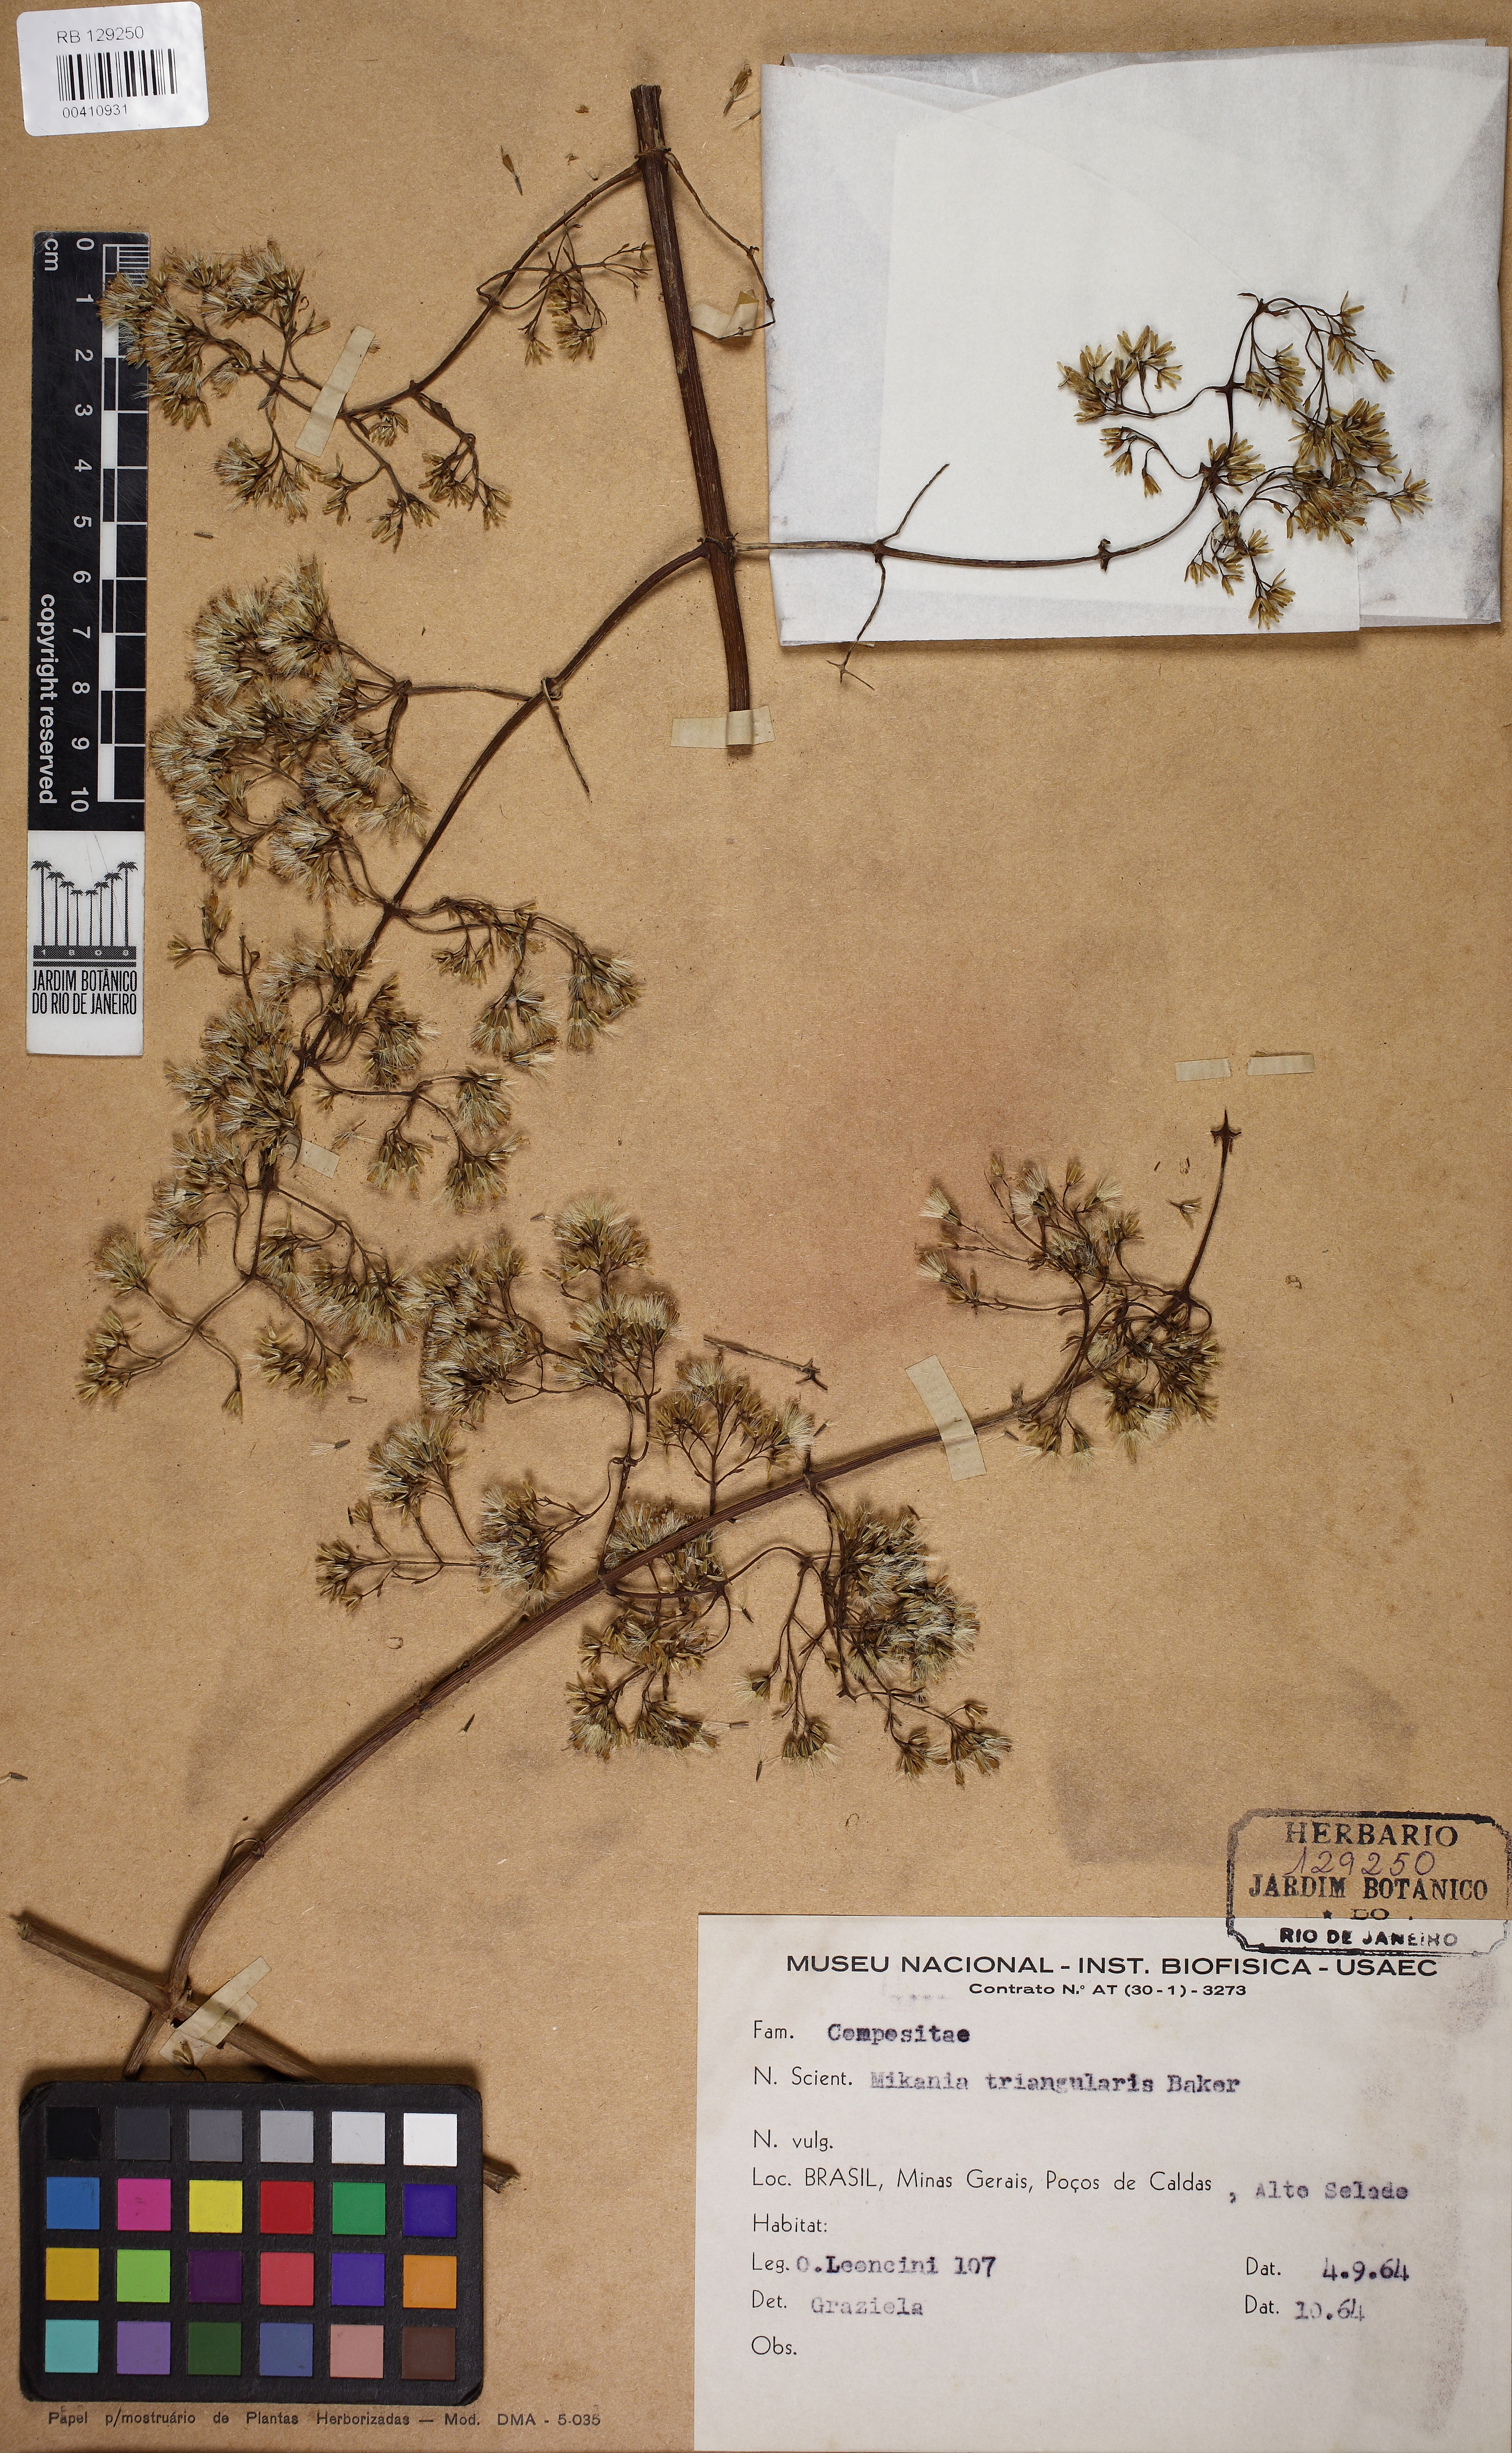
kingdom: Plantae
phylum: Tracheophyta
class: Magnoliopsida
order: Asterales
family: Asteraceae
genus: Mikania
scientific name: Mikania triangularis
